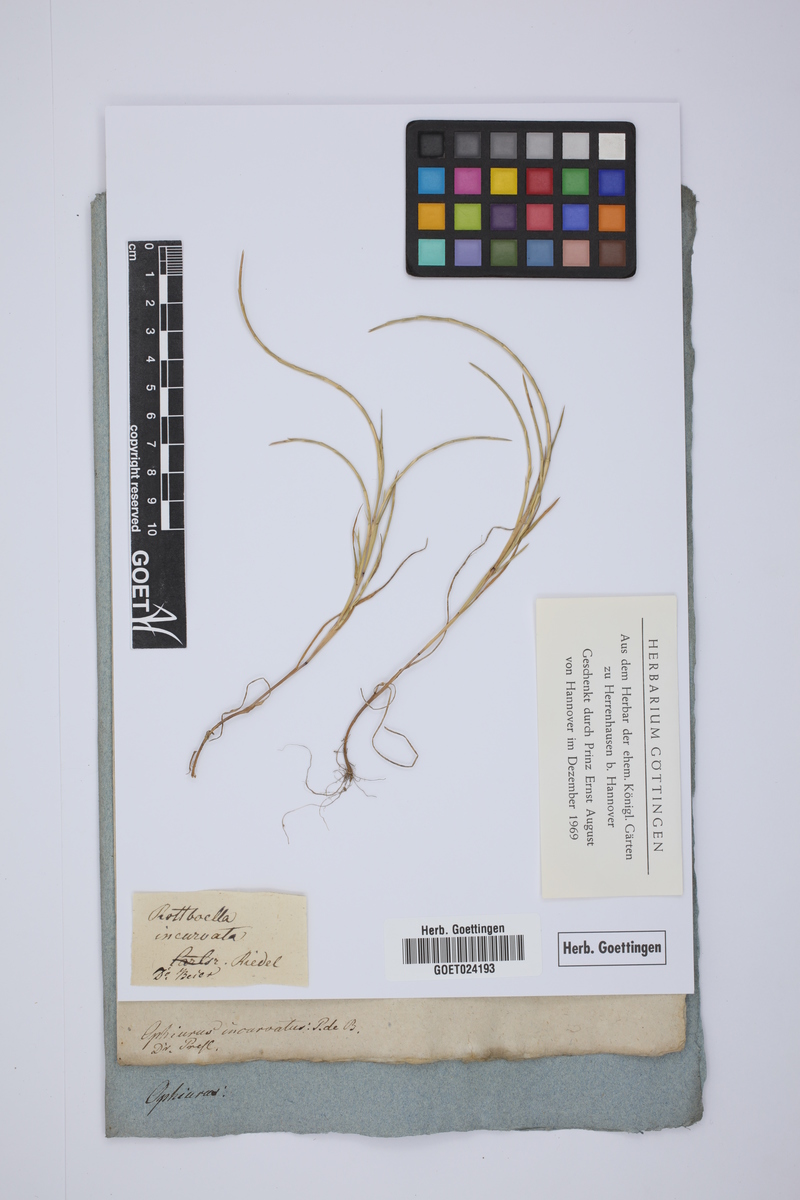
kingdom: Plantae
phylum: Tracheophyta
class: Liliopsida
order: Poales
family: Poaceae
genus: Parapholis
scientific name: Parapholis incurva
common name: Curved sicklegrass
